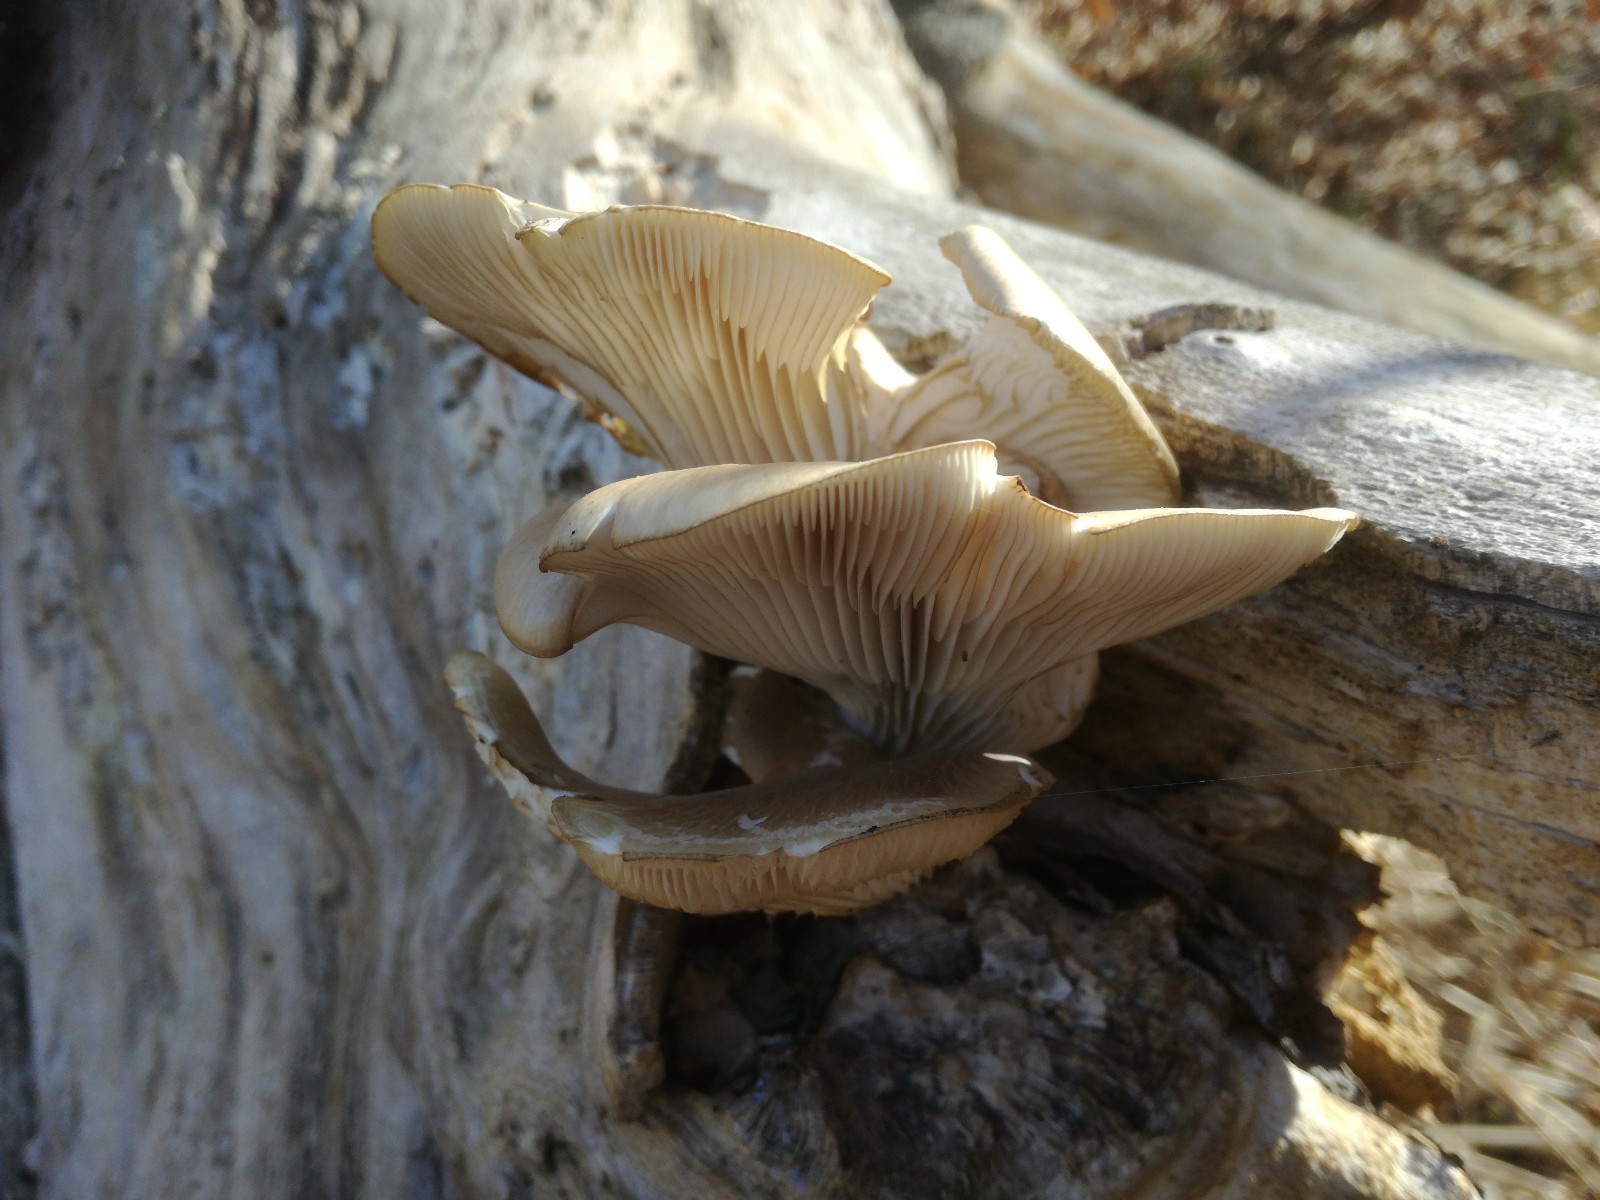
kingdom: Fungi
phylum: Basidiomycota
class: Agaricomycetes
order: Agaricales
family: Pleurotaceae
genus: Pleurotus
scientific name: Pleurotus ostreatus
